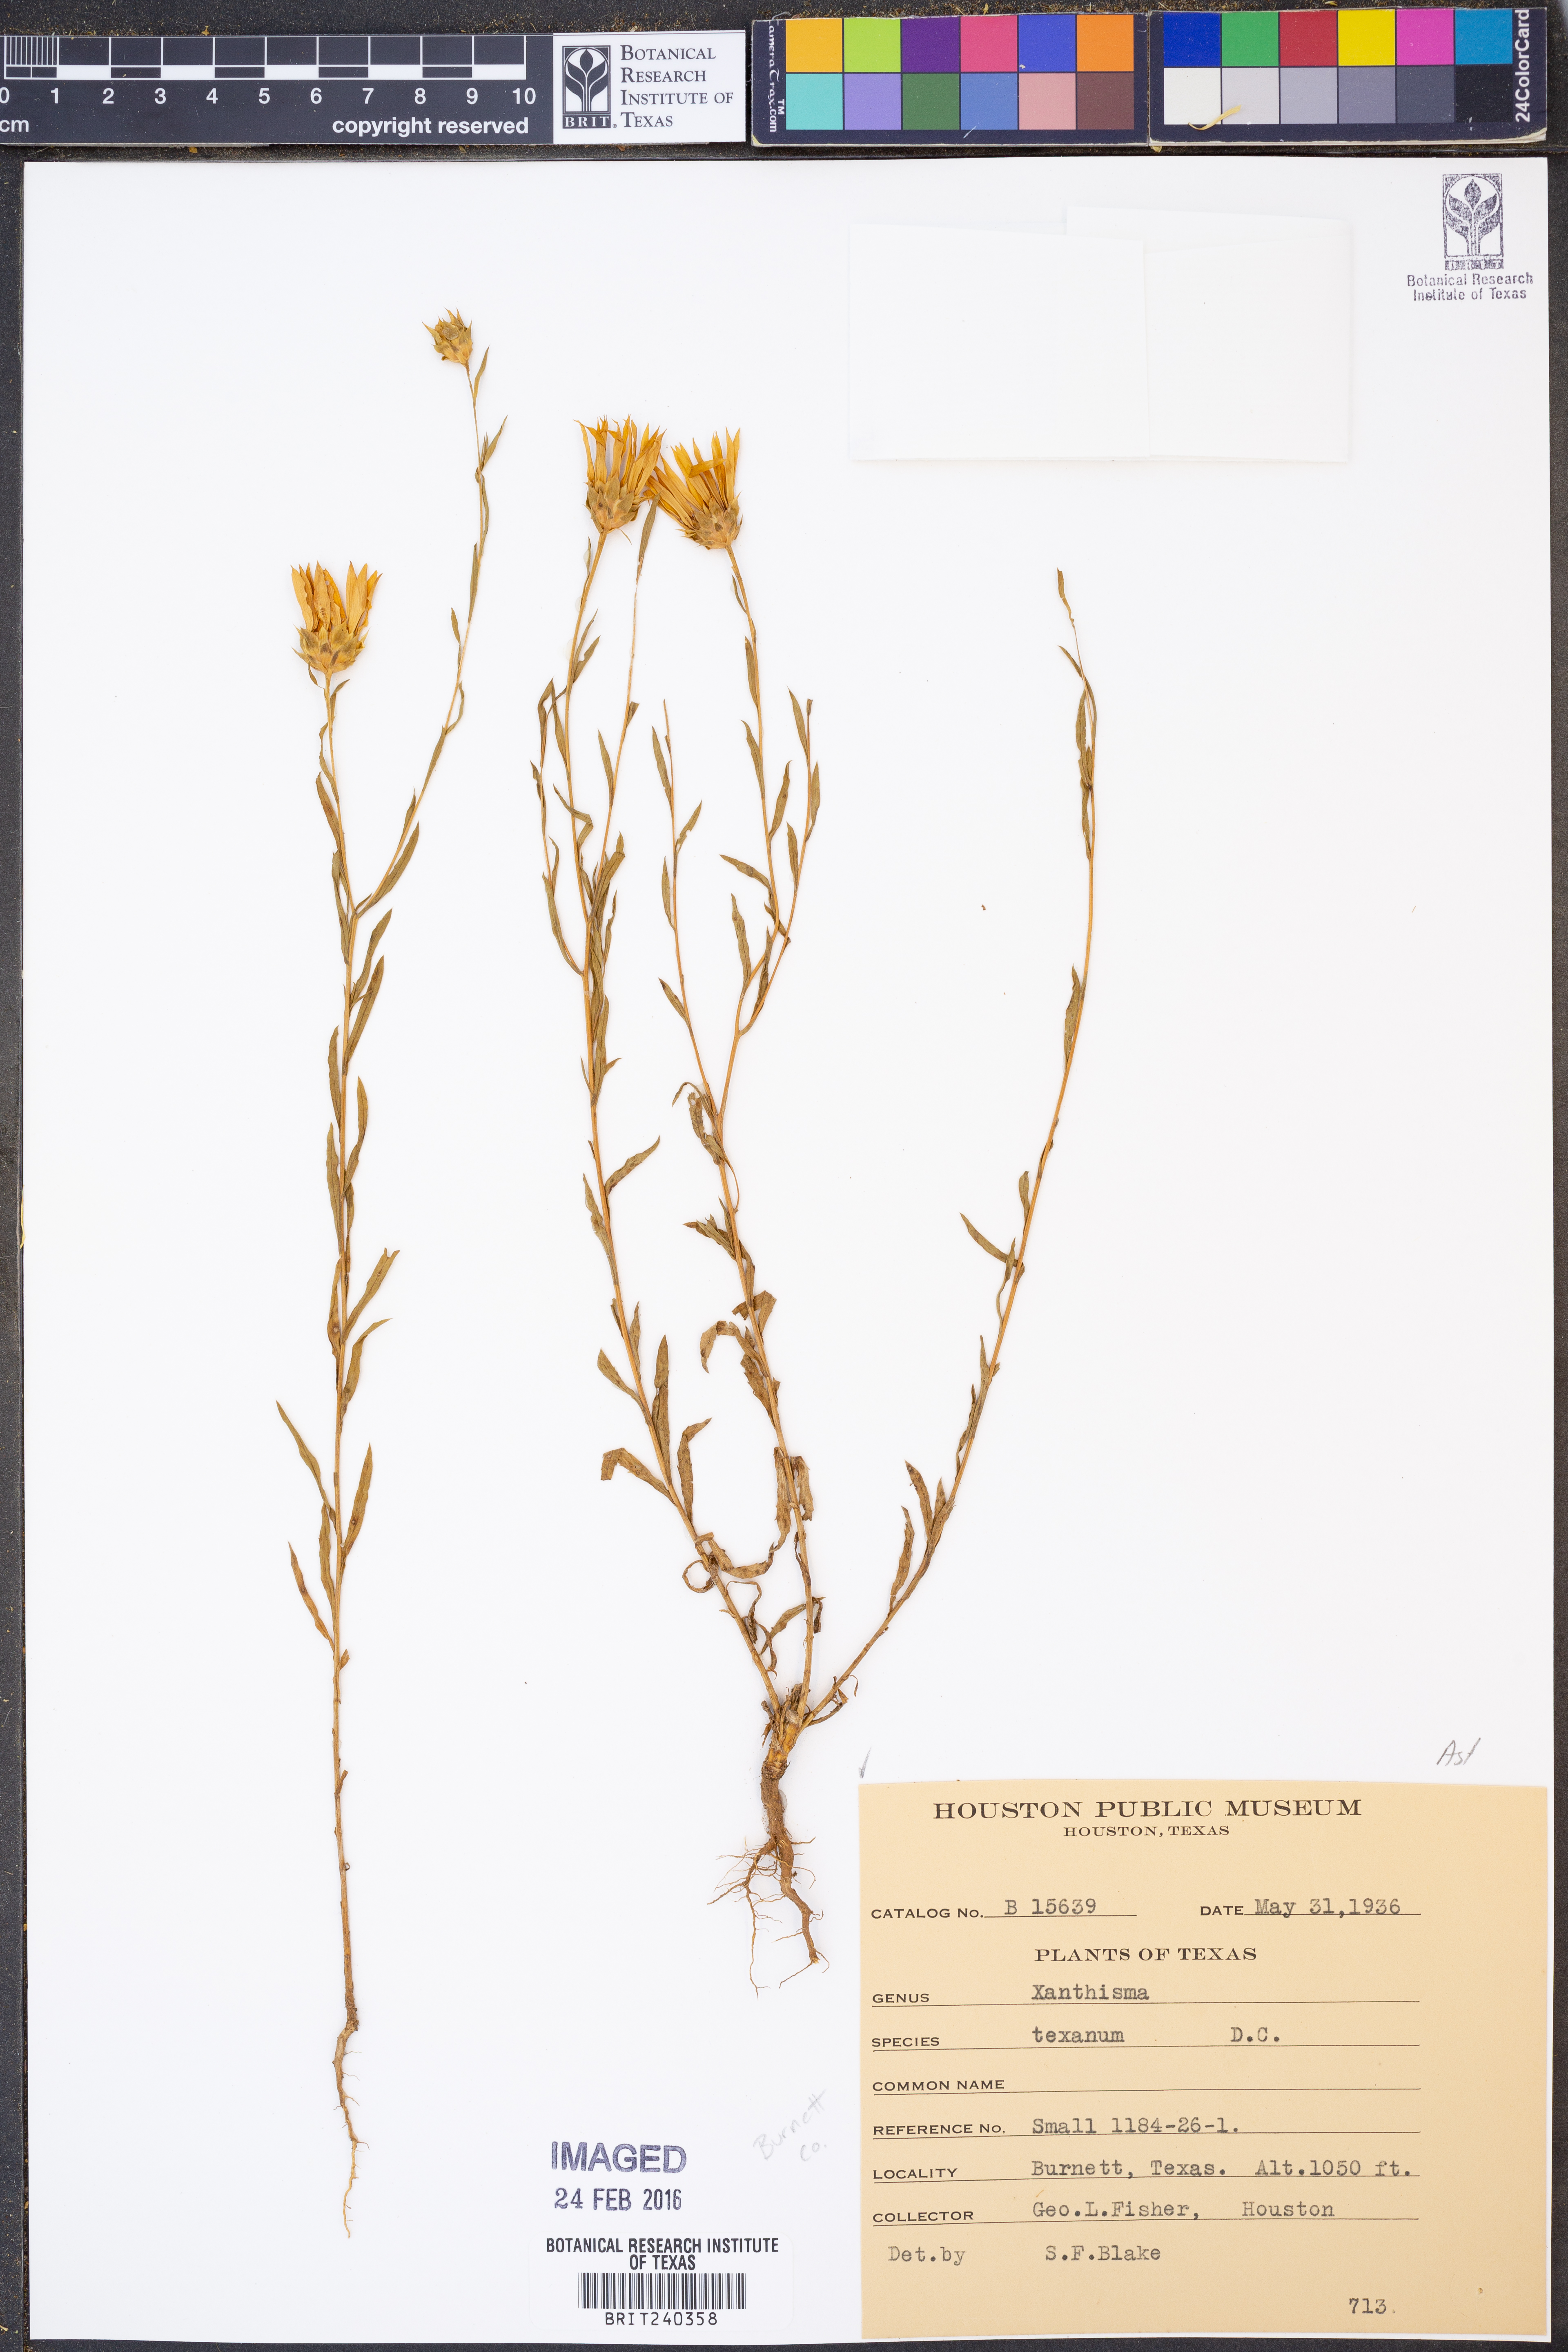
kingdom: Plantae
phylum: Tracheophyta
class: Magnoliopsida
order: Asterales
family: Asteraceae
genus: Xanthisma
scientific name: Xanthisma texanum
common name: Texas sleepy daisy
